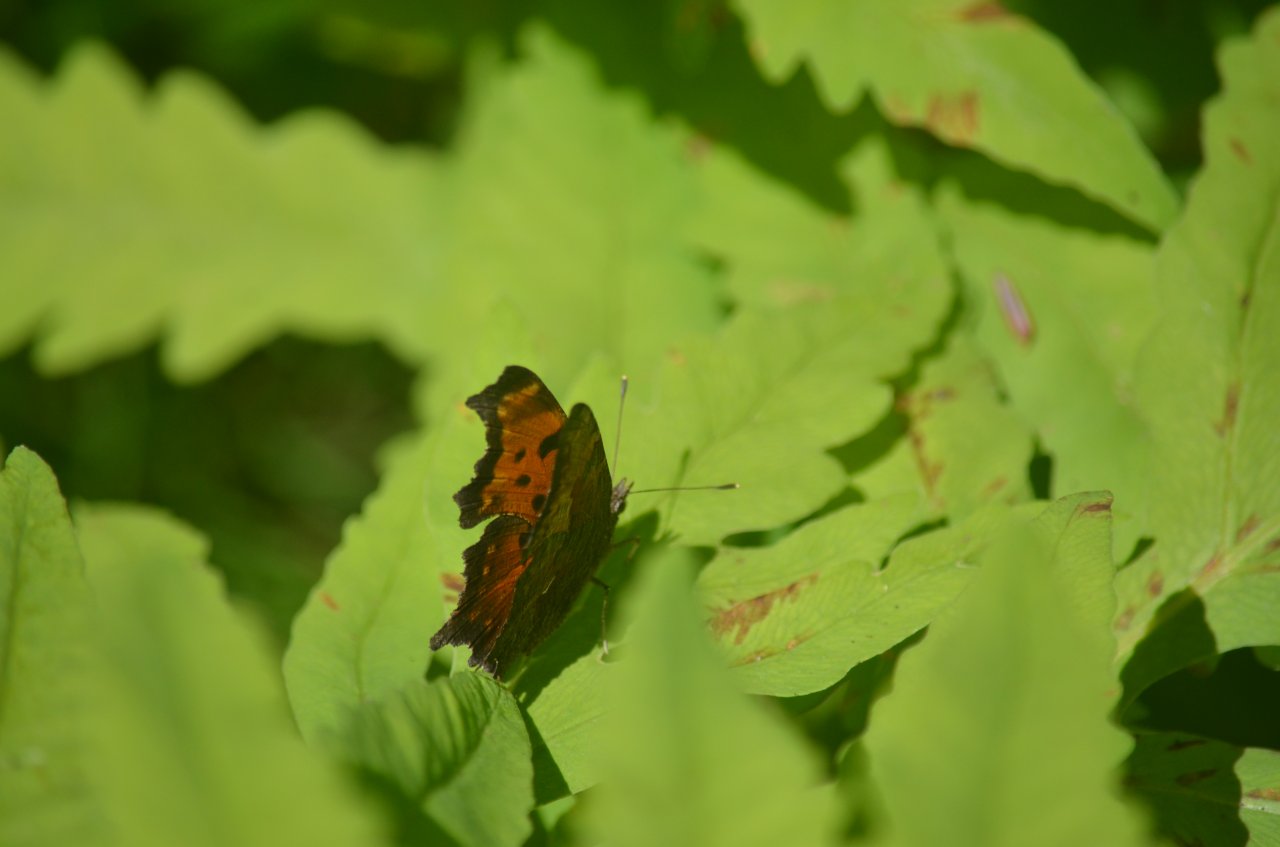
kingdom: Animalia
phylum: Arthropoda
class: Insecta
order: Lepidoptera
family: Nymphalidae
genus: Polygonia
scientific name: Polygonia progne
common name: Gray Comma
